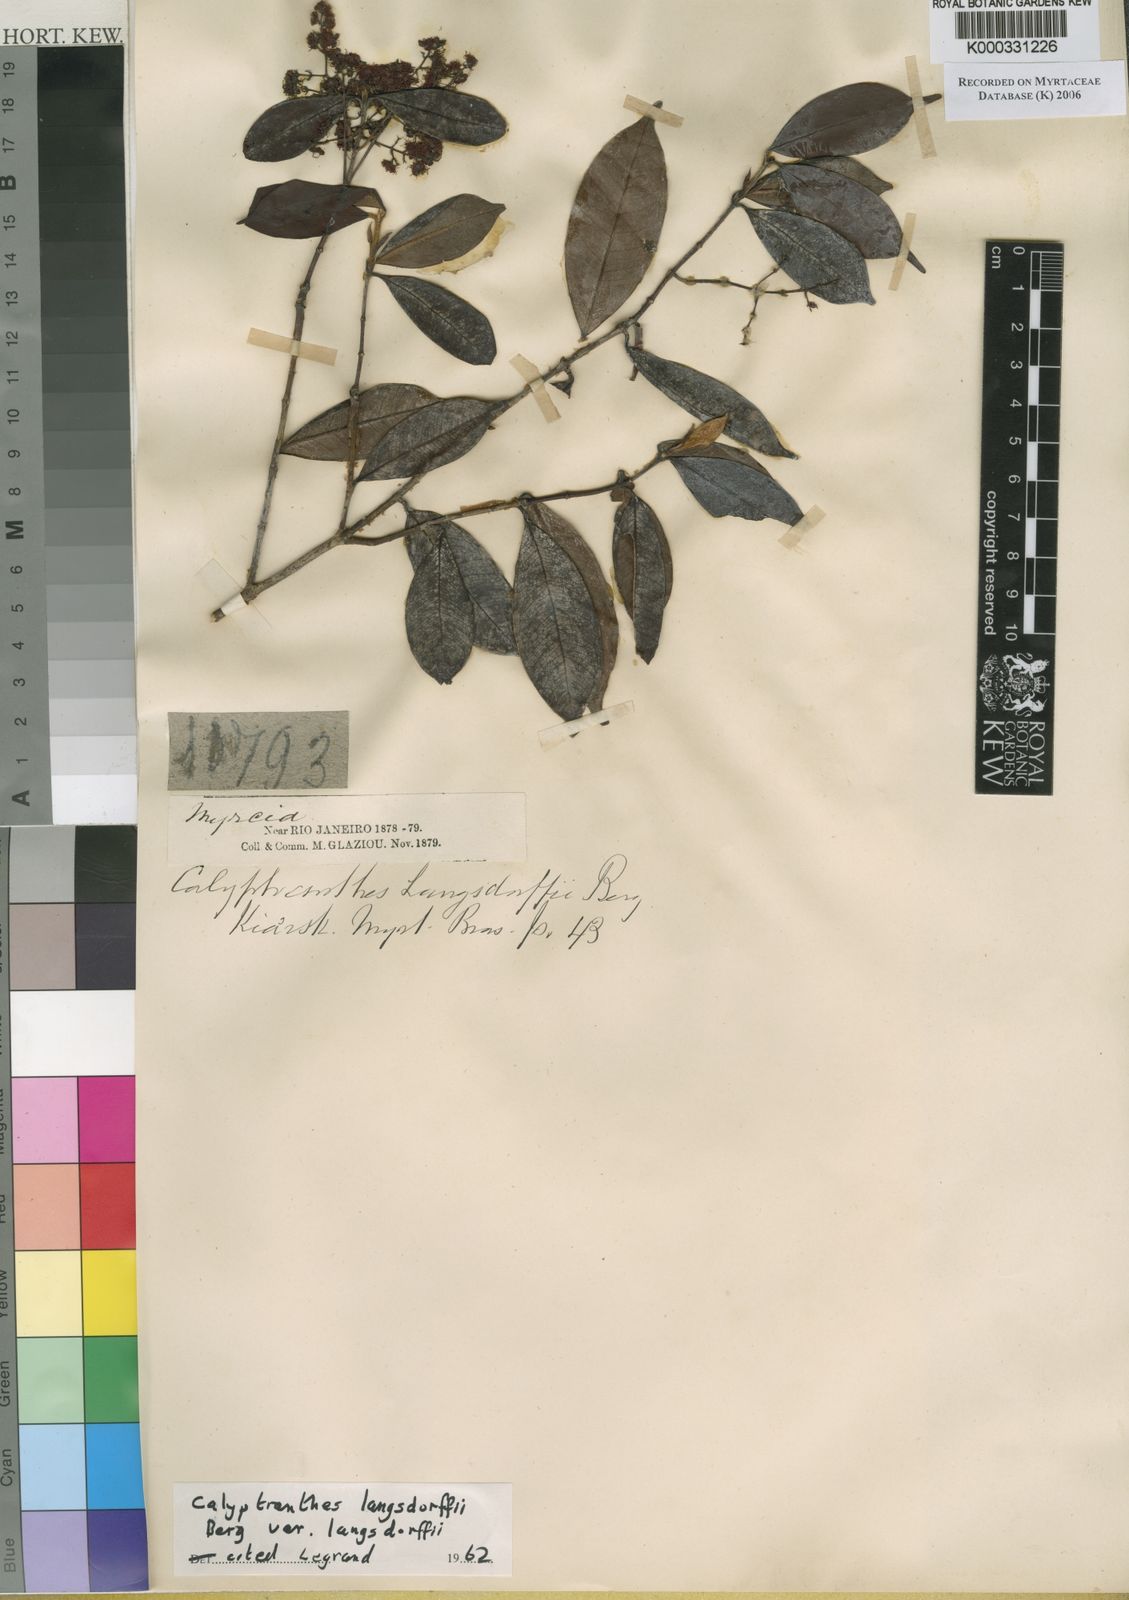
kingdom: Plantae
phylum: Tracheophyta
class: Magnoliopsida
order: Myrtales
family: Myrtaceae
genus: Myrcia
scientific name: Myrcia marliereana
